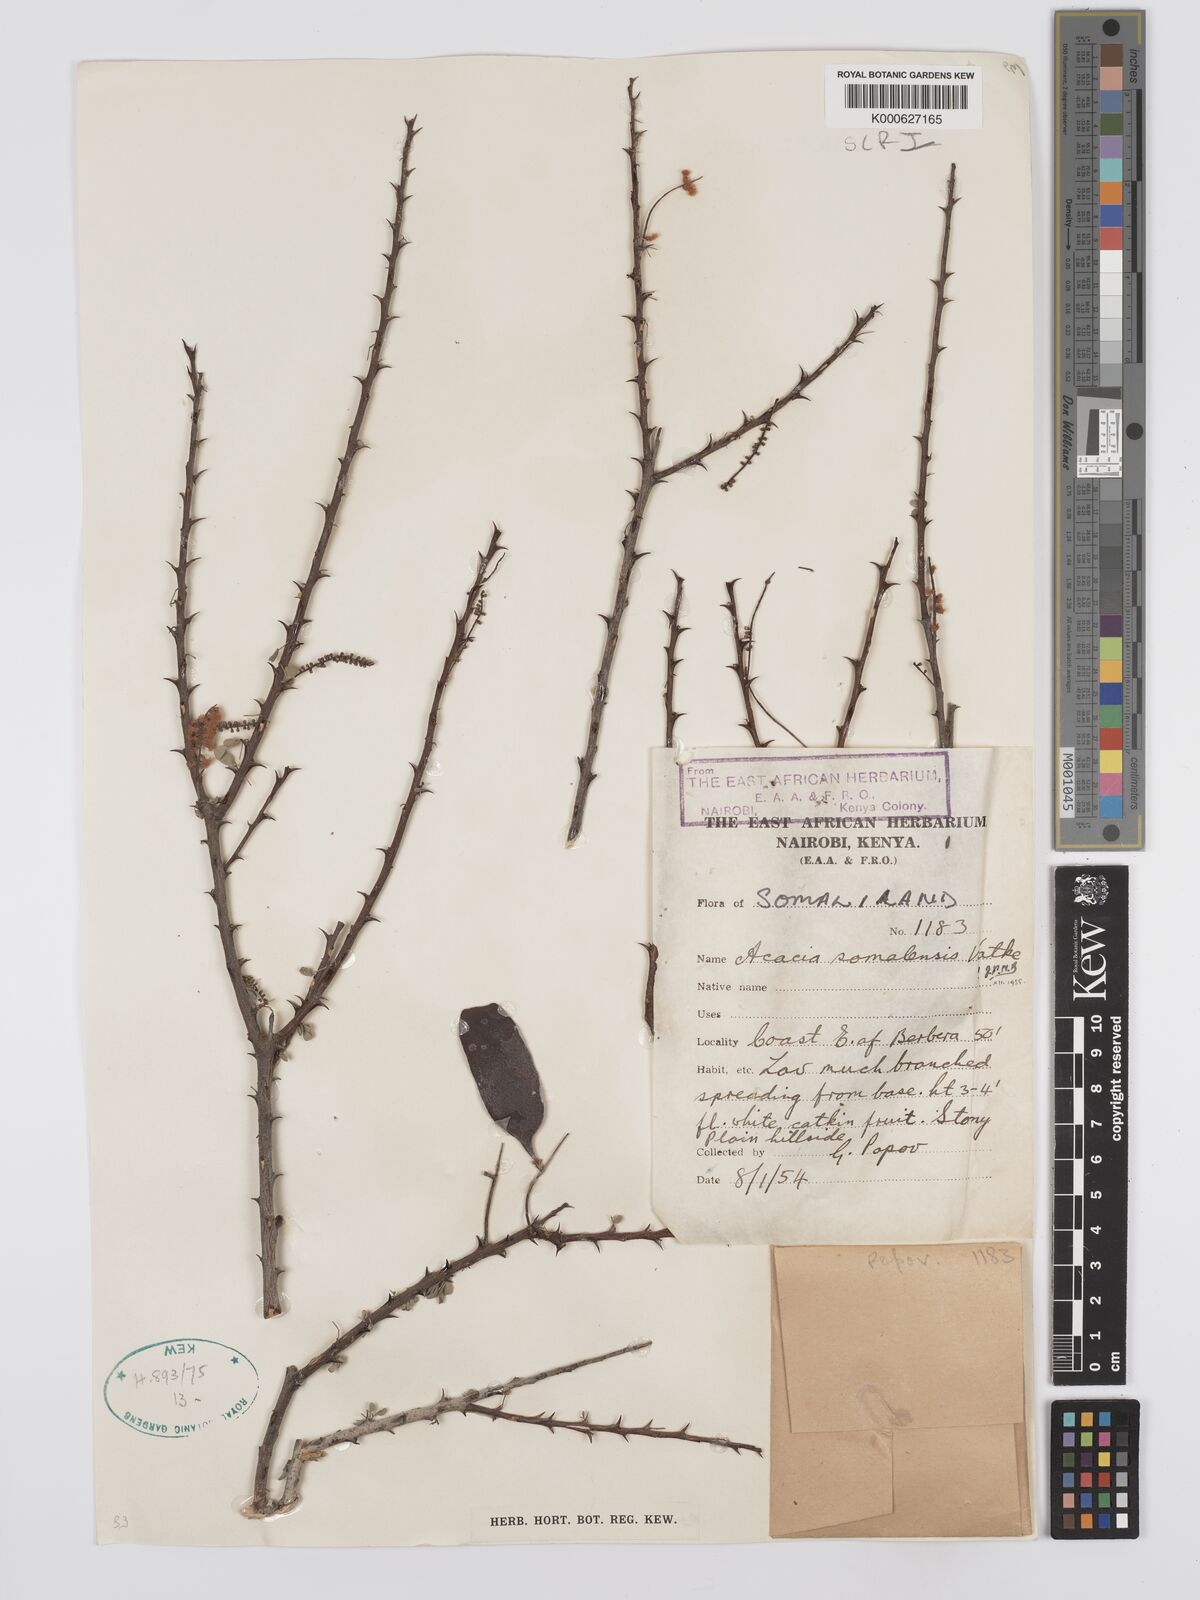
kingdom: Plantae
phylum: Tracheophyta
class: Magnoliopsida
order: Fabales
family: Fabaceae
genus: Senegalia
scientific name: Senegalia somalensis
